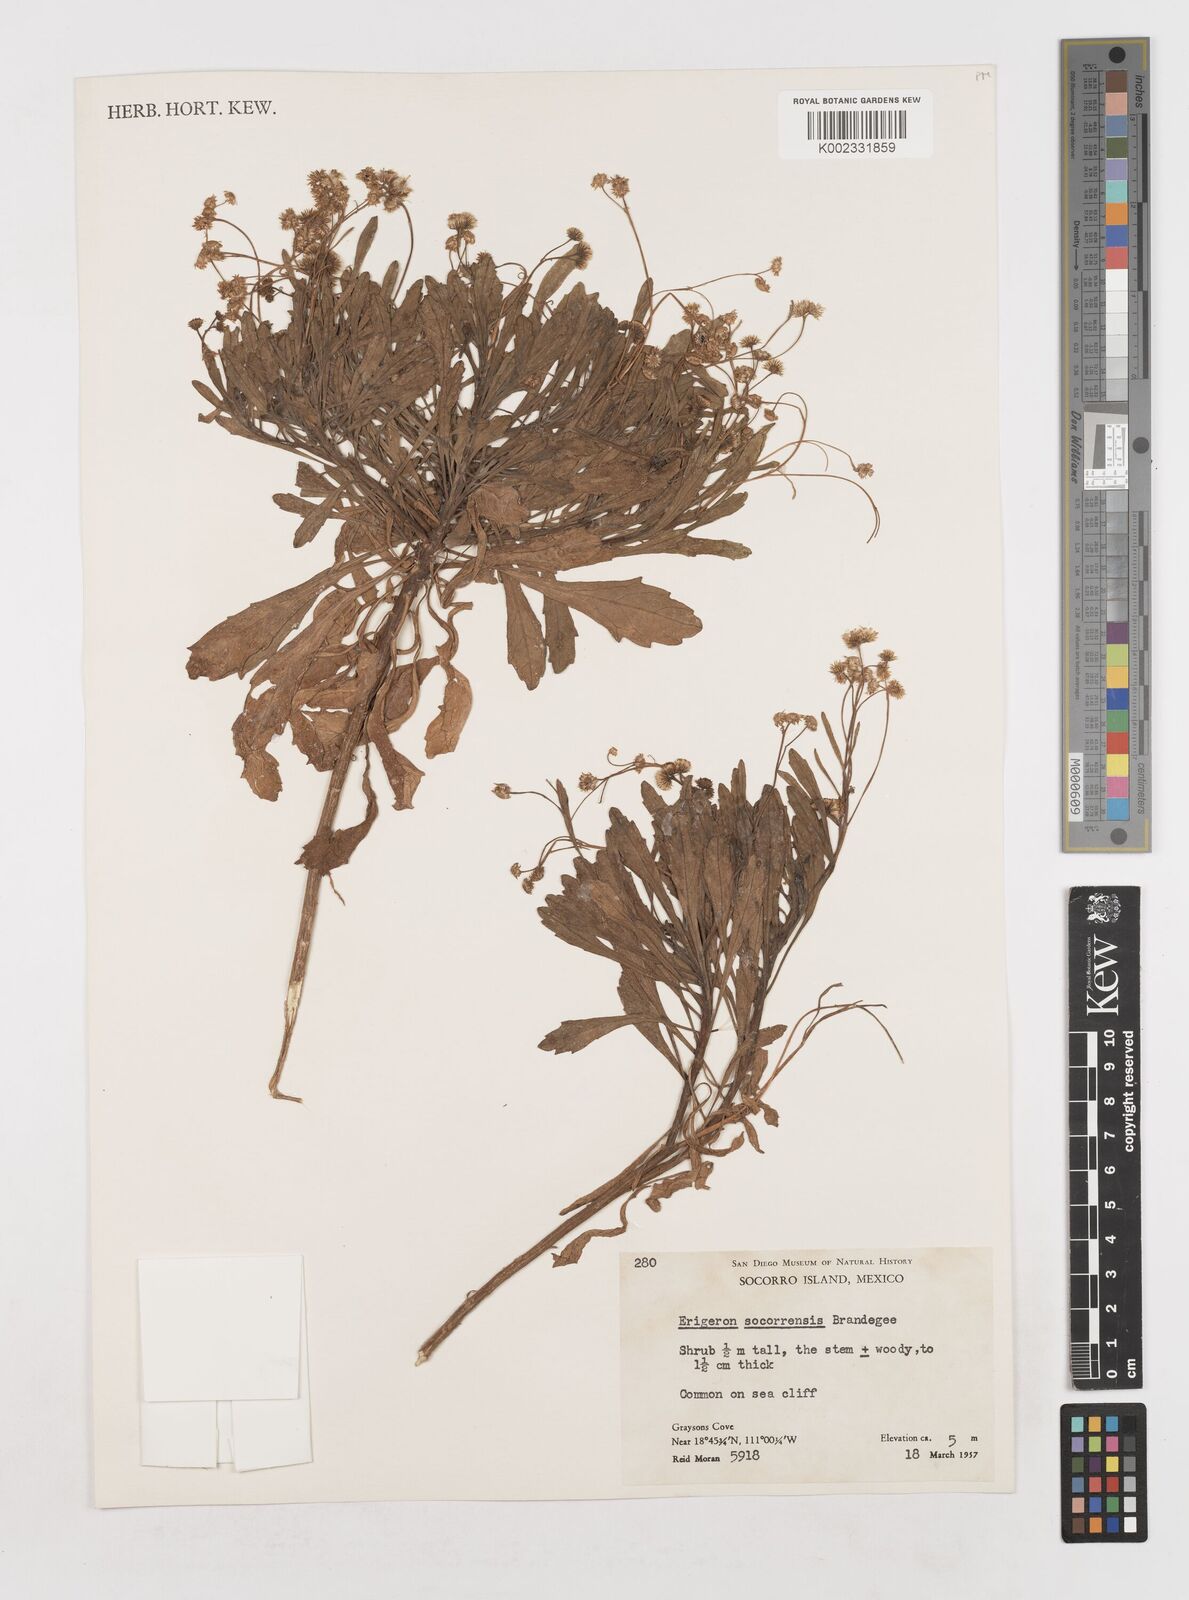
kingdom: Plantae
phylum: Tracheophyta
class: Magnoliopsida
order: Asterales
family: Asteraceae
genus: Erigeron
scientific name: Erigeron socorrensis
